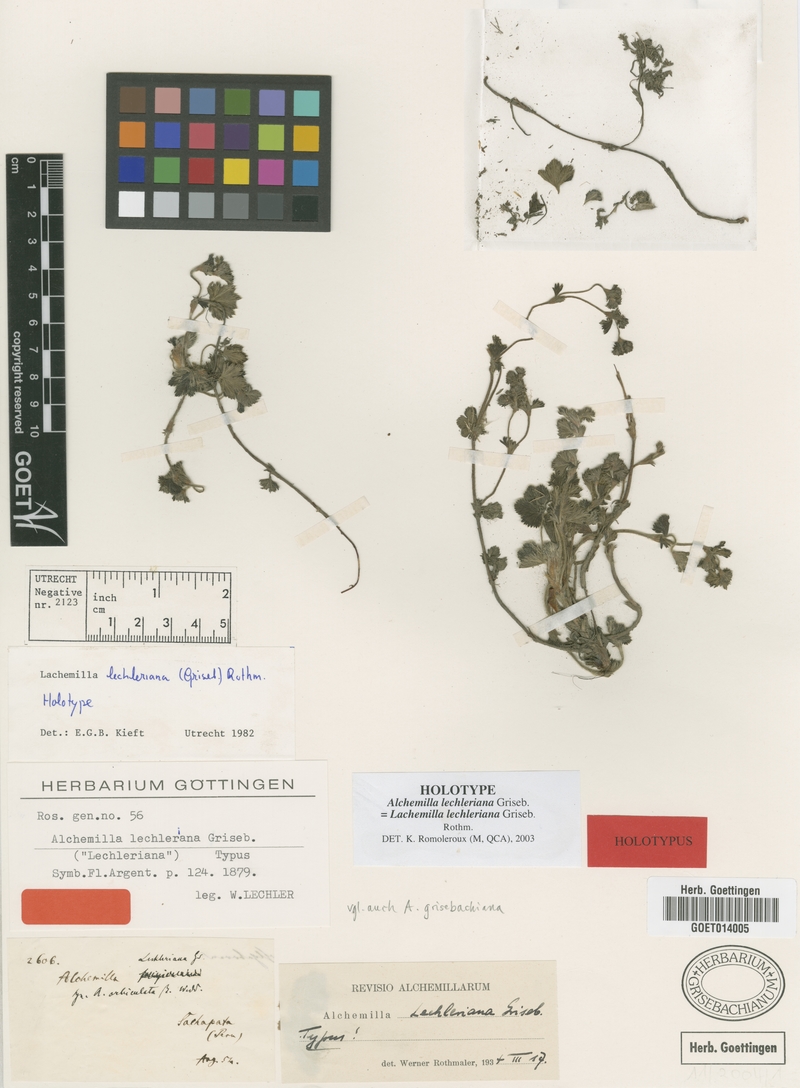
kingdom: Plantae
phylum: Tracheophyta
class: Magnoliopsida
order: Rosales
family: Rosaceae
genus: Lachemilla
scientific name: Lachemilla lechleriana
